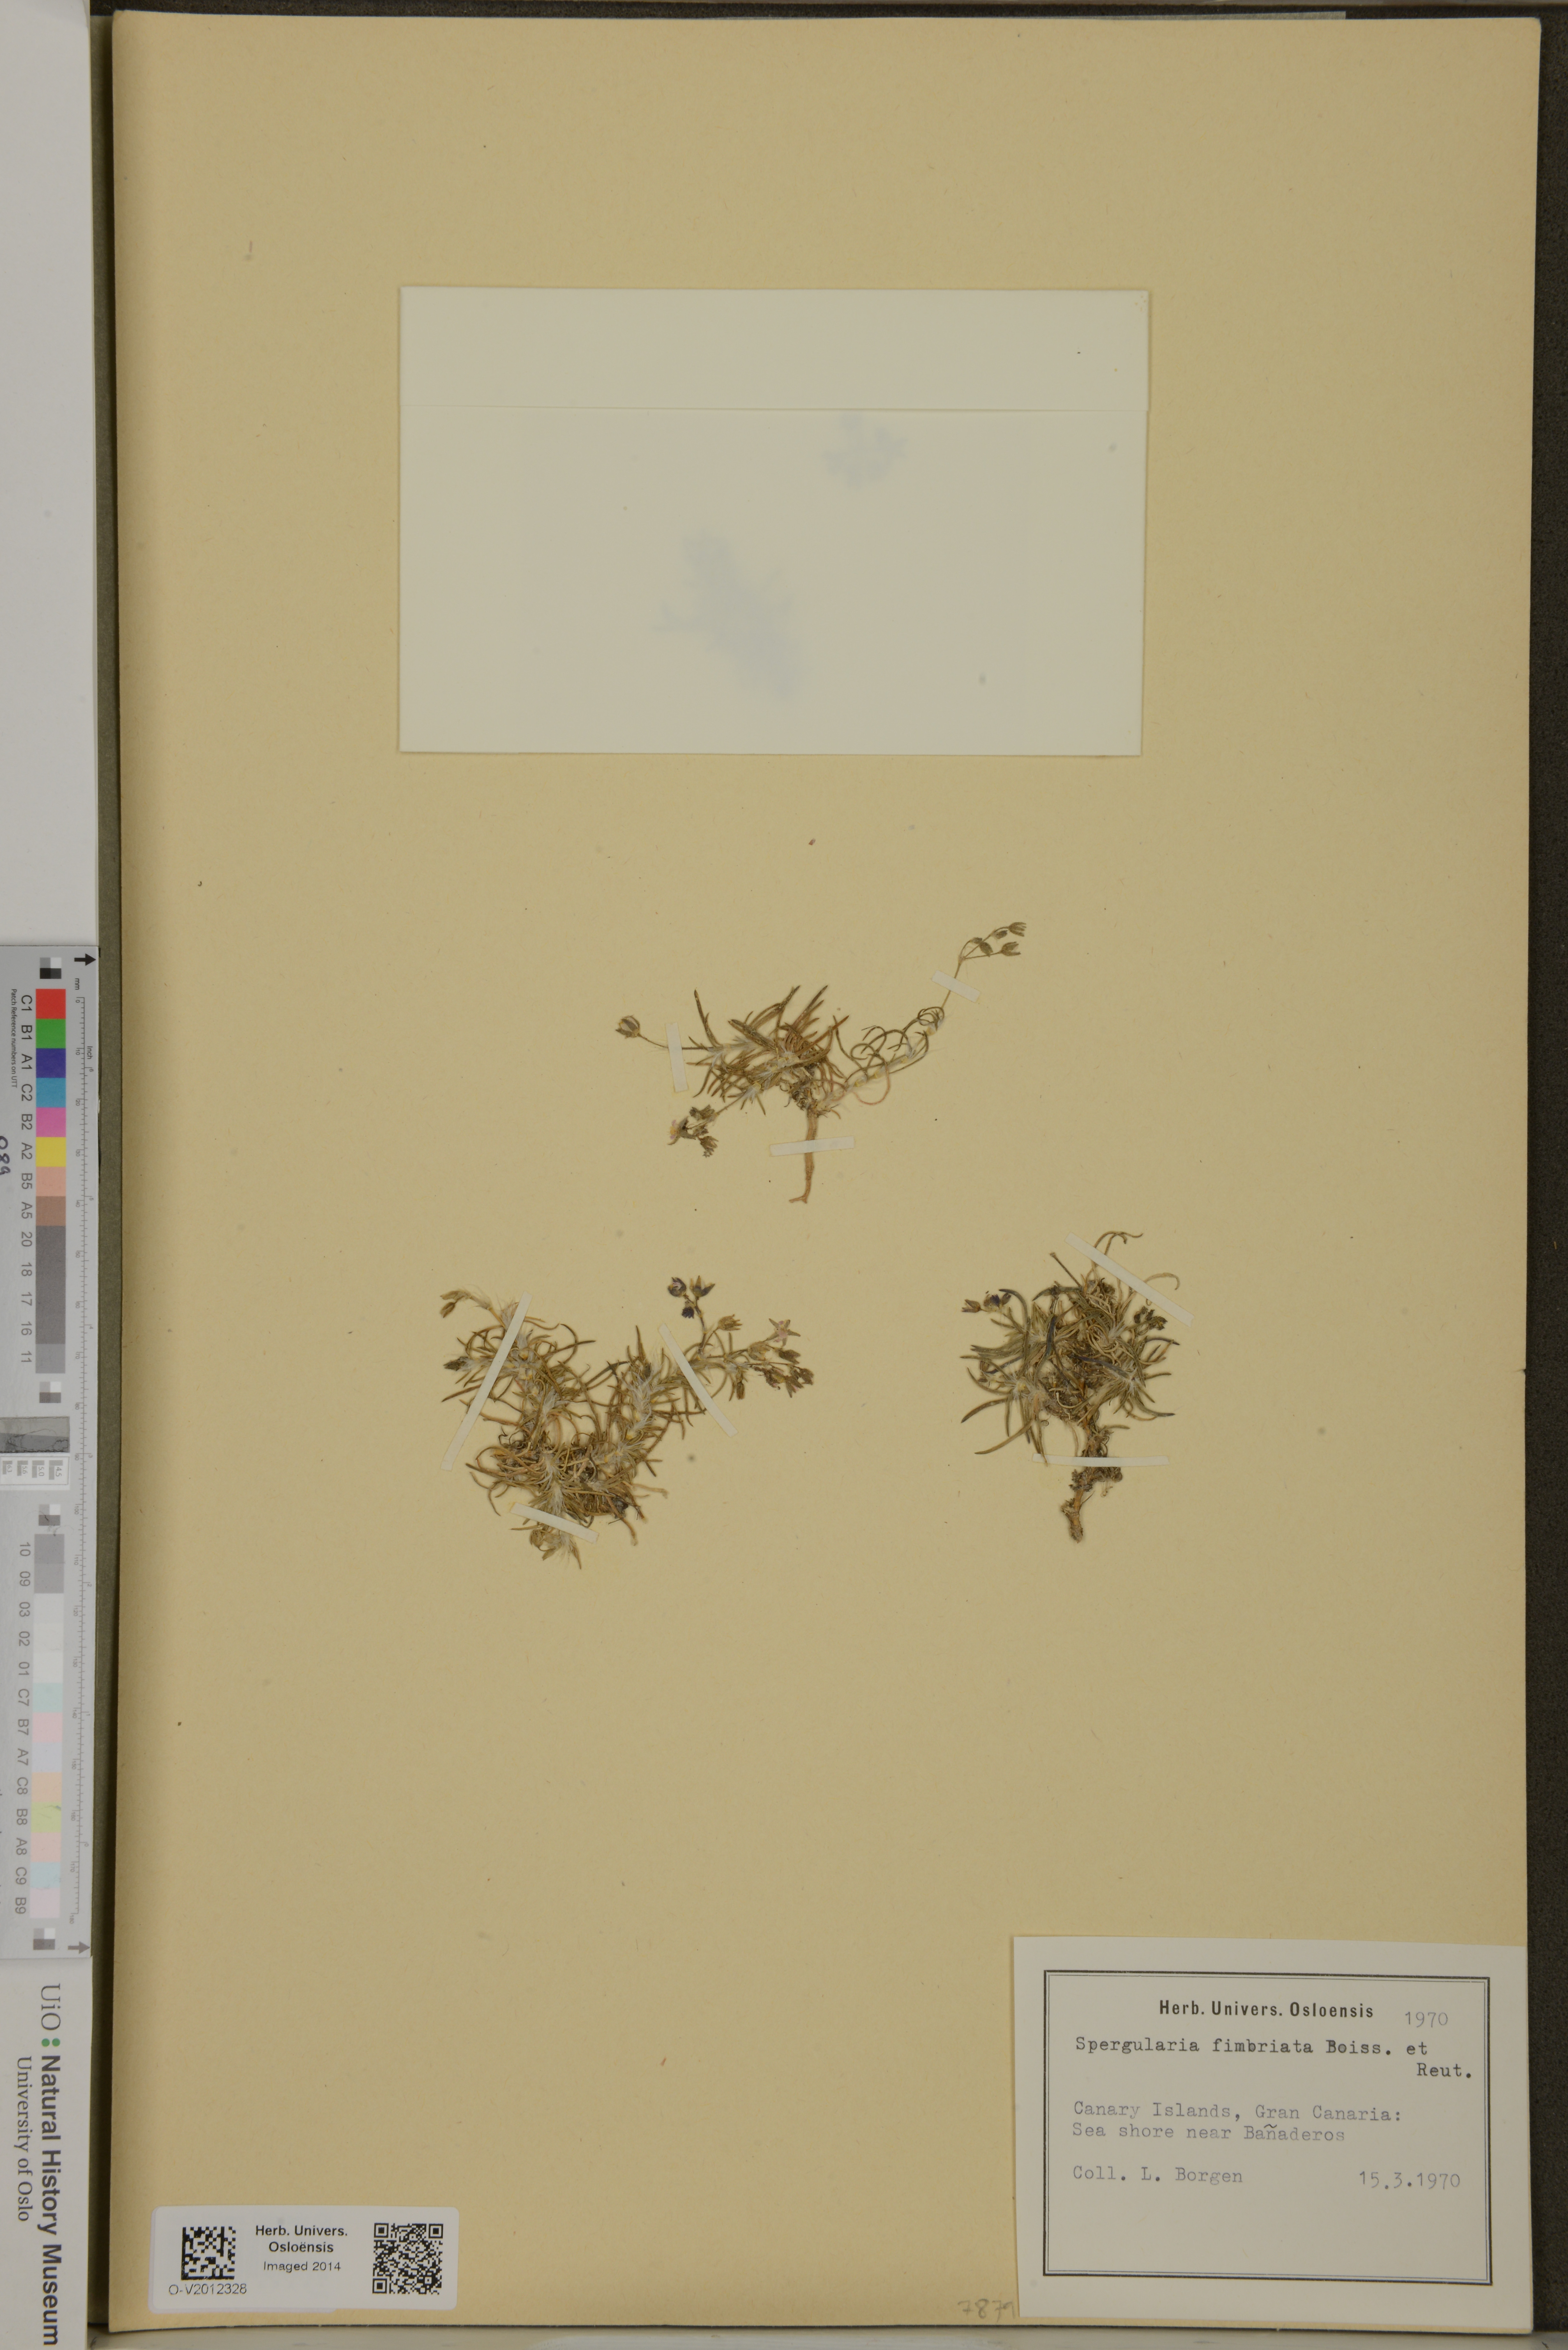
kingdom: Plantae
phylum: Tracheophyta
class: Magnoliopsida
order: Caryophyllales
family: Caryophyllaceae
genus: Spergularia
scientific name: Spergularia fimbriata
